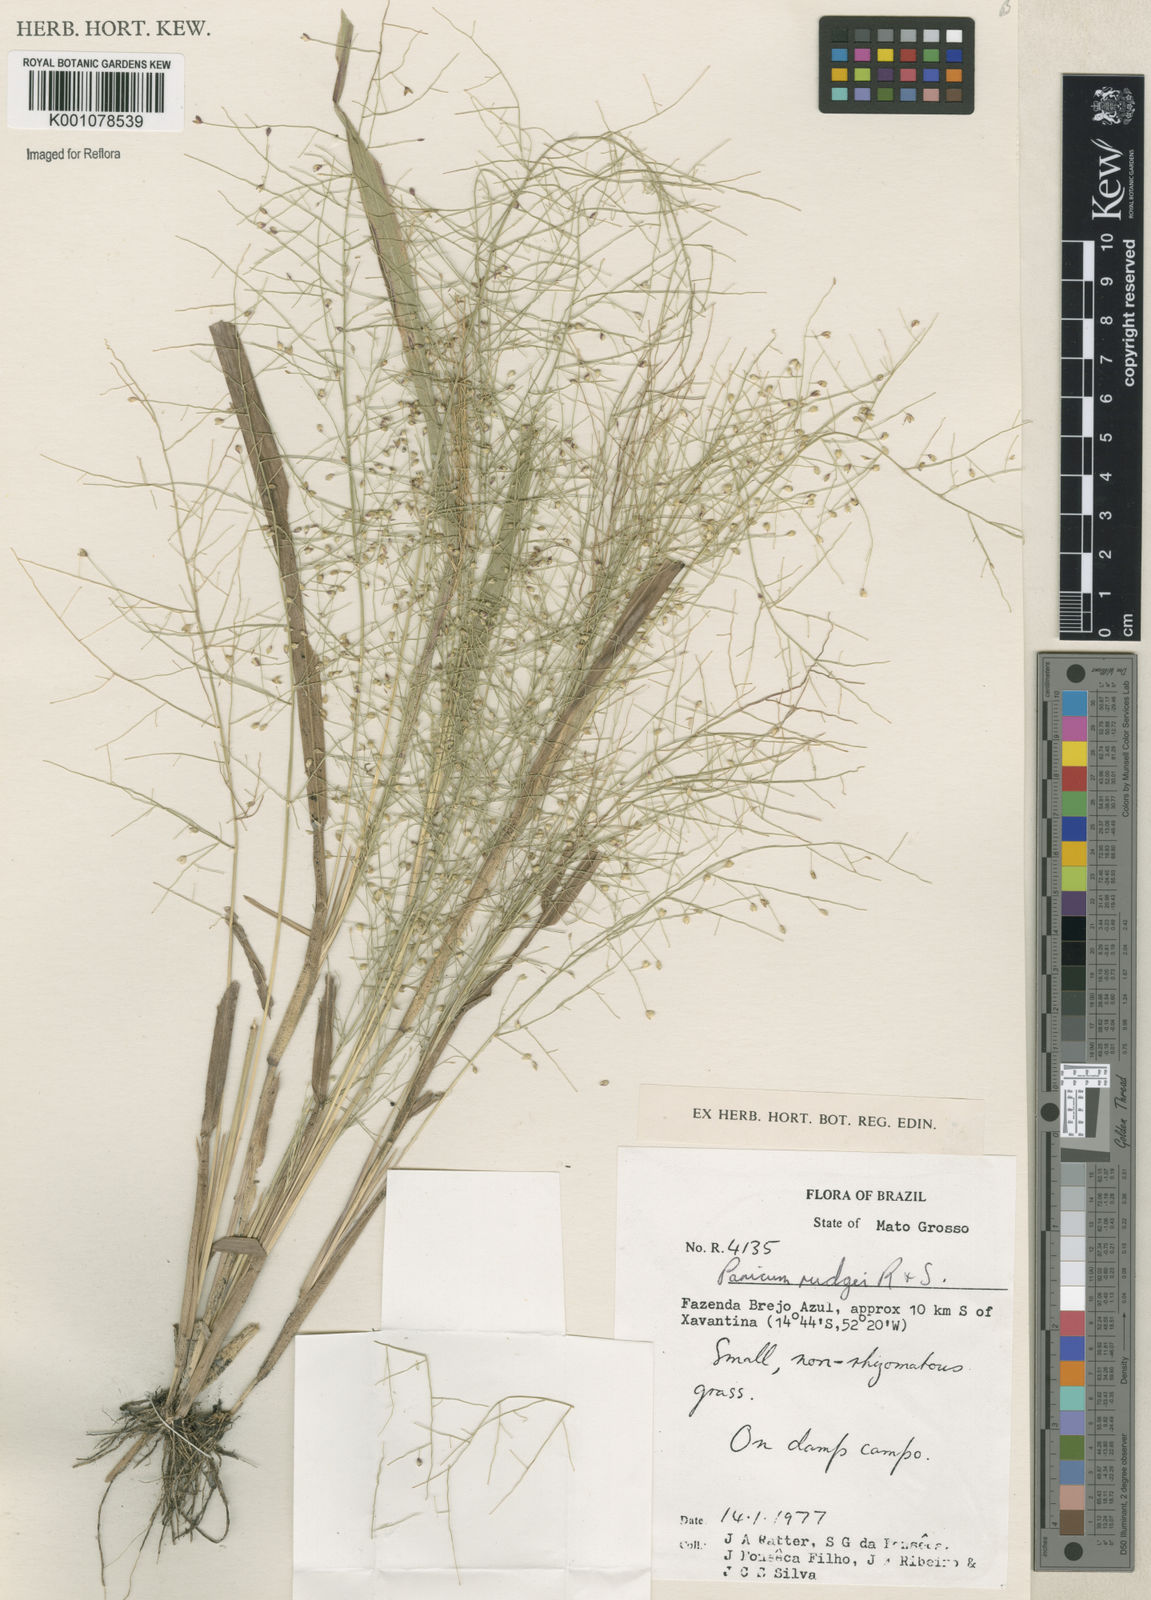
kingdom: Plantae
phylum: Tracheophyta
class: Liliopsida
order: Poales
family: Poaceae
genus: Panicum
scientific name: Panicum cayennense
